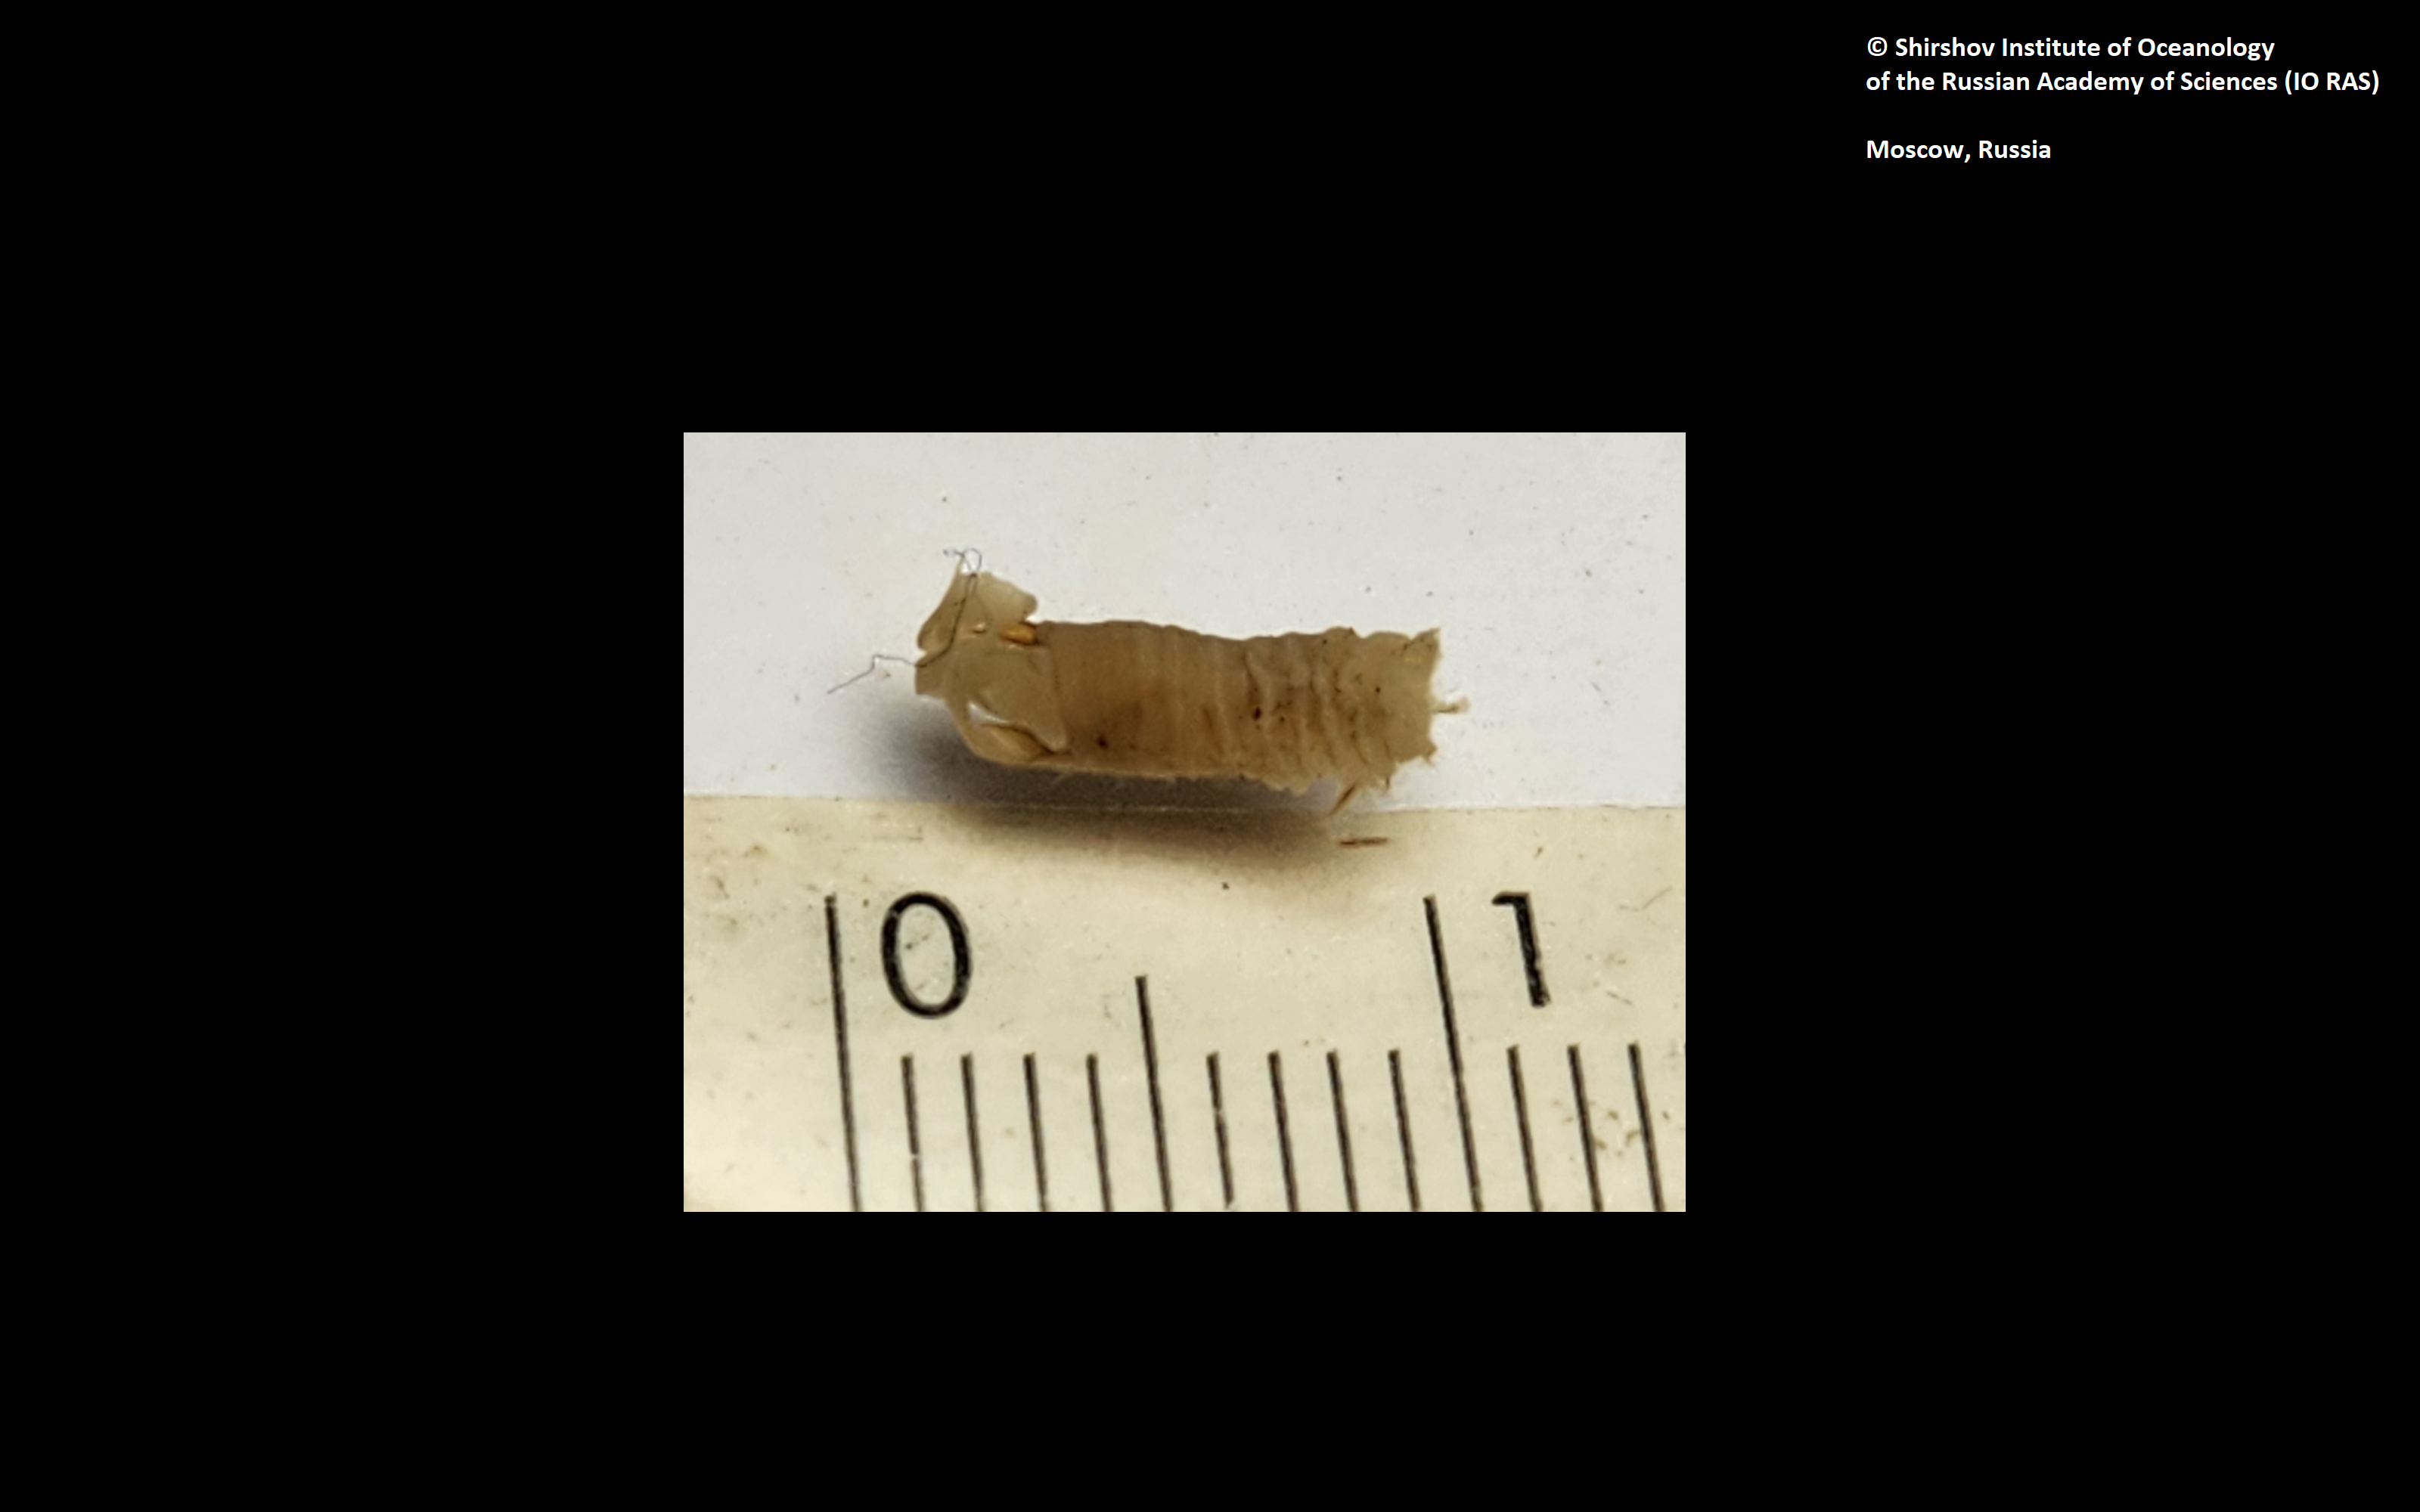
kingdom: Animalia
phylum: Annelida
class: Polychaeta
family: Ampharetidae
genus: Amphicteis
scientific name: Amphicteis nikiti
